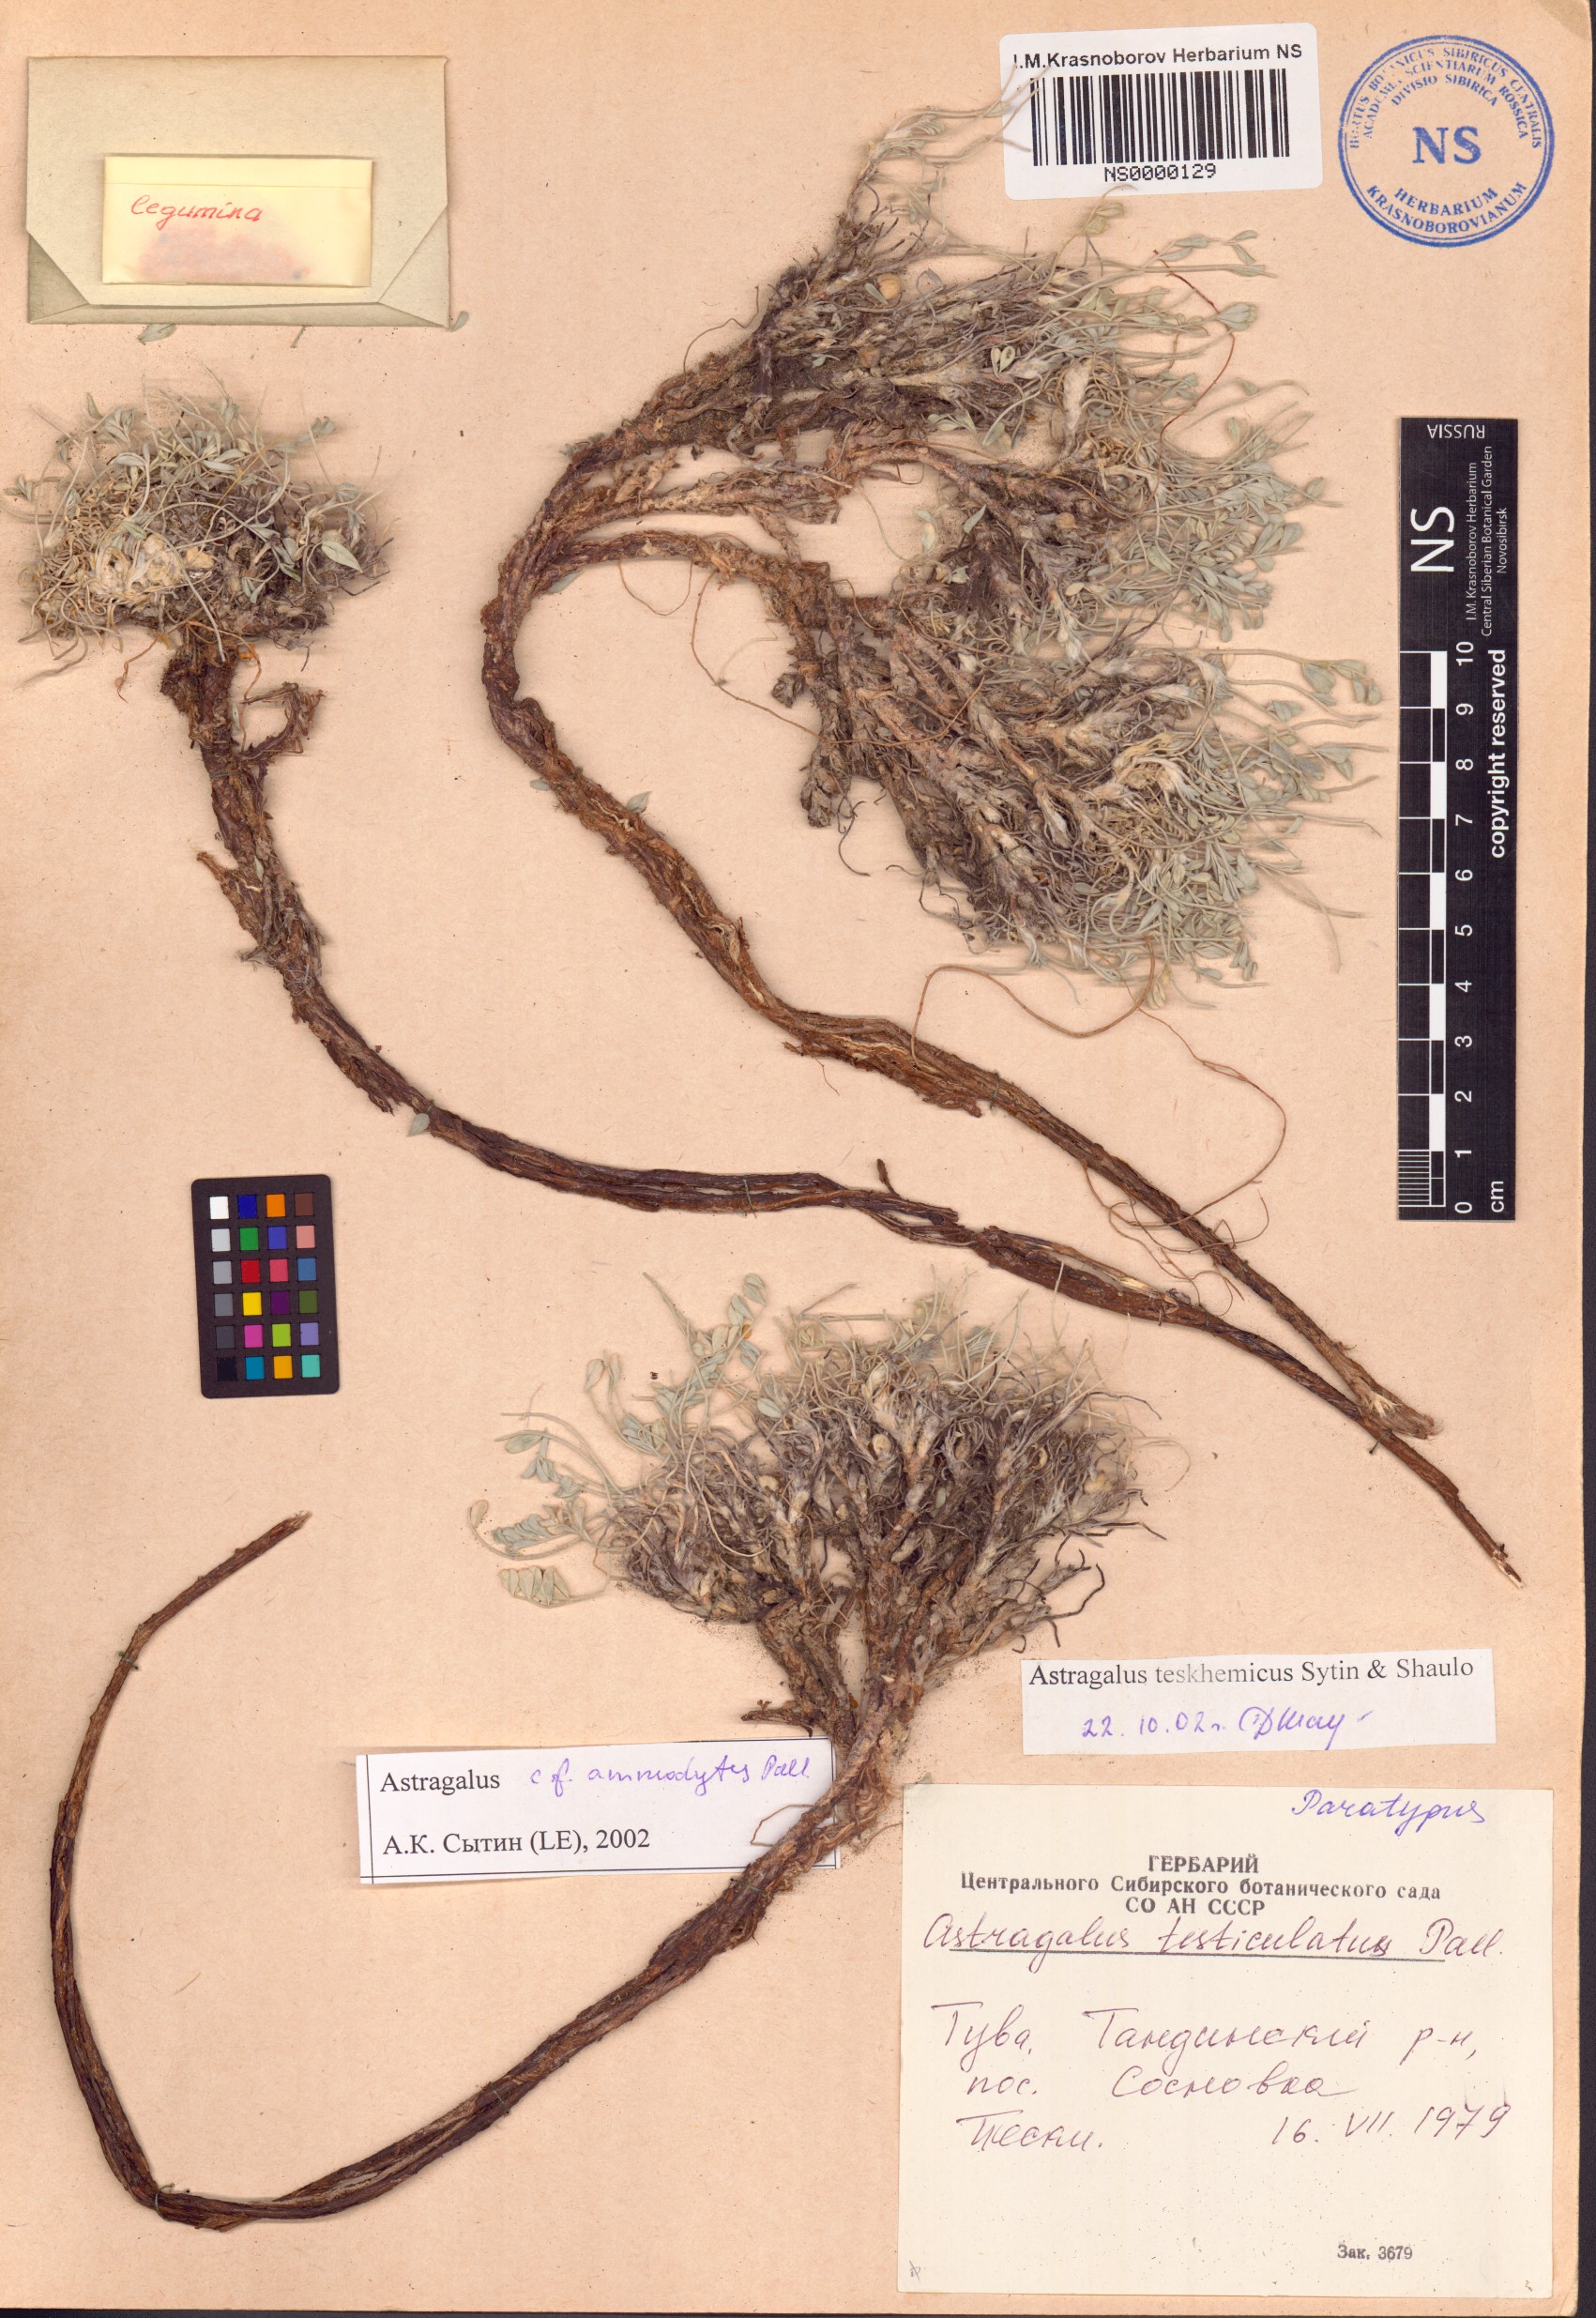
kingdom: Plantae
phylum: Tracheophyta
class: Magnoliopsida
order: Fabales
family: Fabaceae
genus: Astragalus
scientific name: Astragalus teskhemicus
